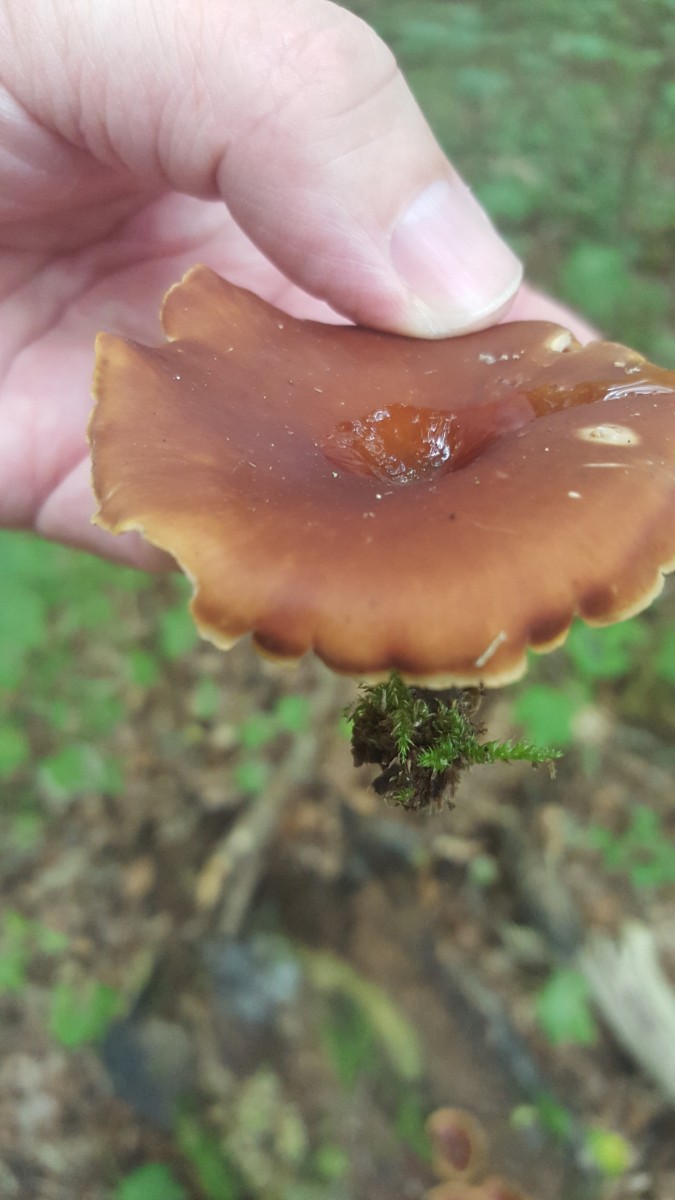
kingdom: Fungi
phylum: Basidiomycota
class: Agaricomycetes
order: Polyporales
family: Polyporaceae
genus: Picipes
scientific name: Picipes badius
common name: kastaniebrun stilkporesvamp
